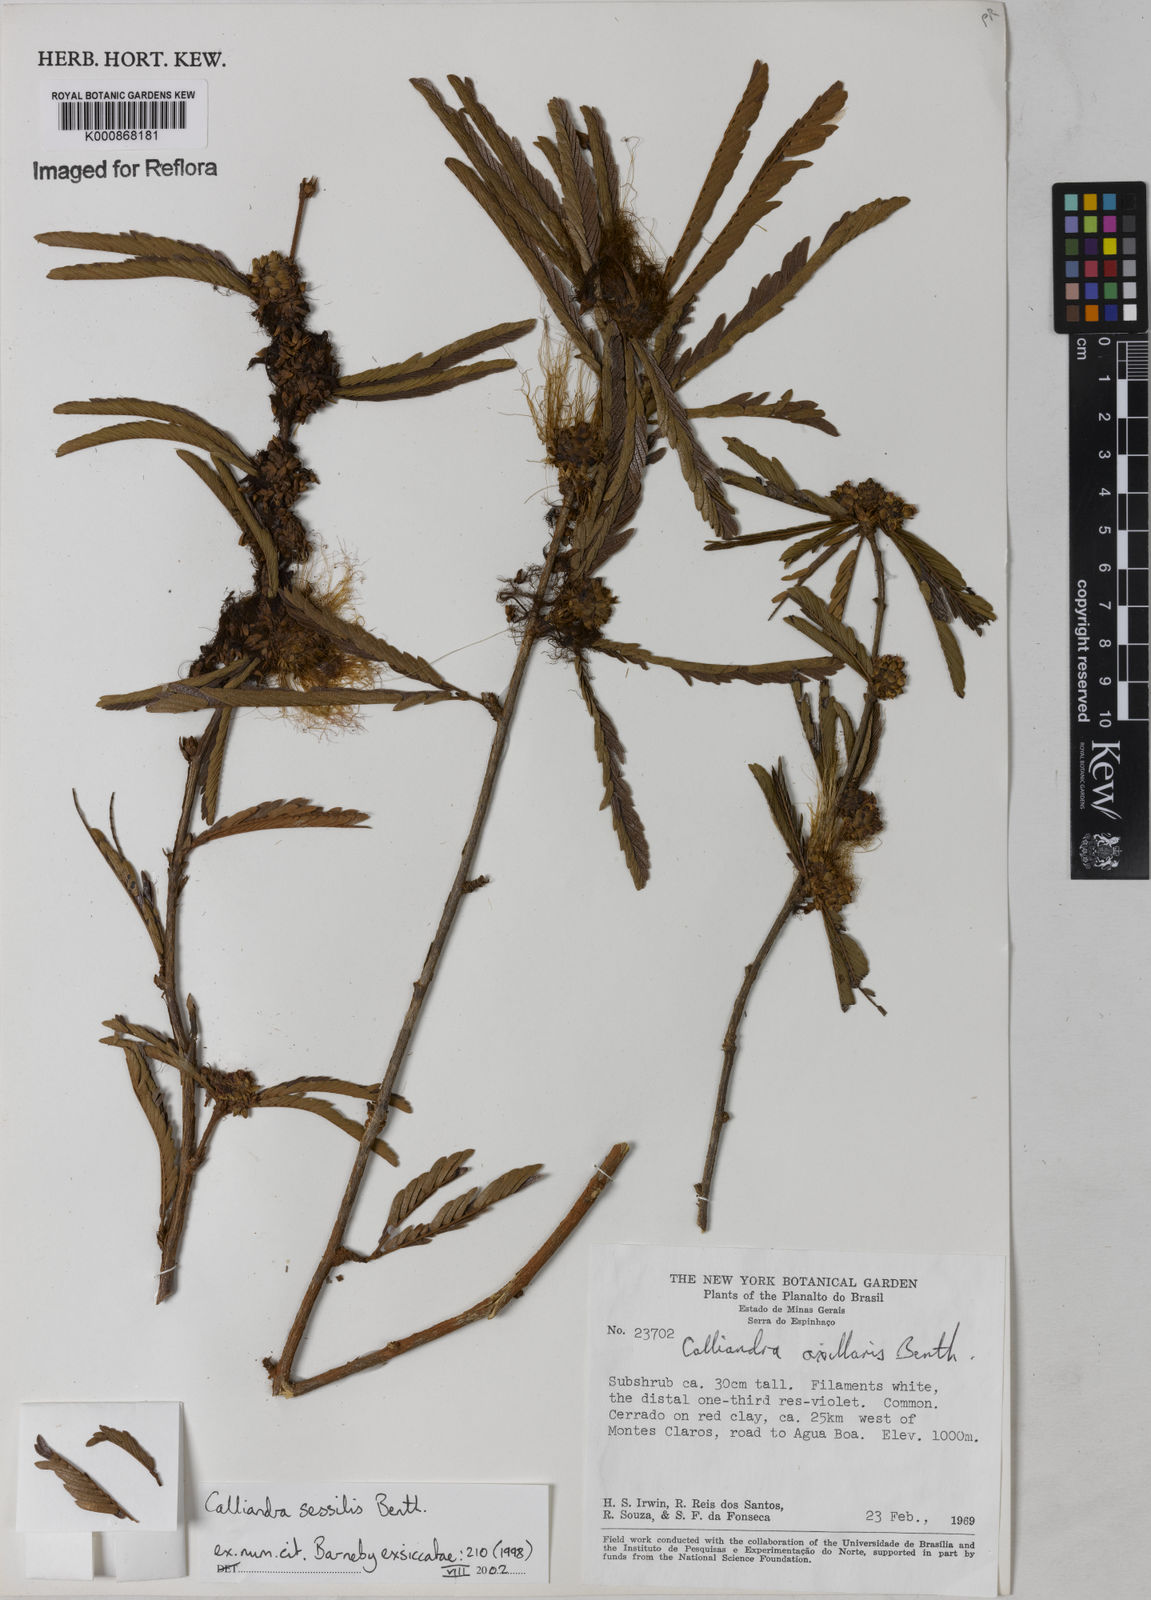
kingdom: Plantae
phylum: Tracheophyta
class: Magnoliopsida
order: Fabales
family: Fabaceae
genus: Calliandra
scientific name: Calliandra sessilis
